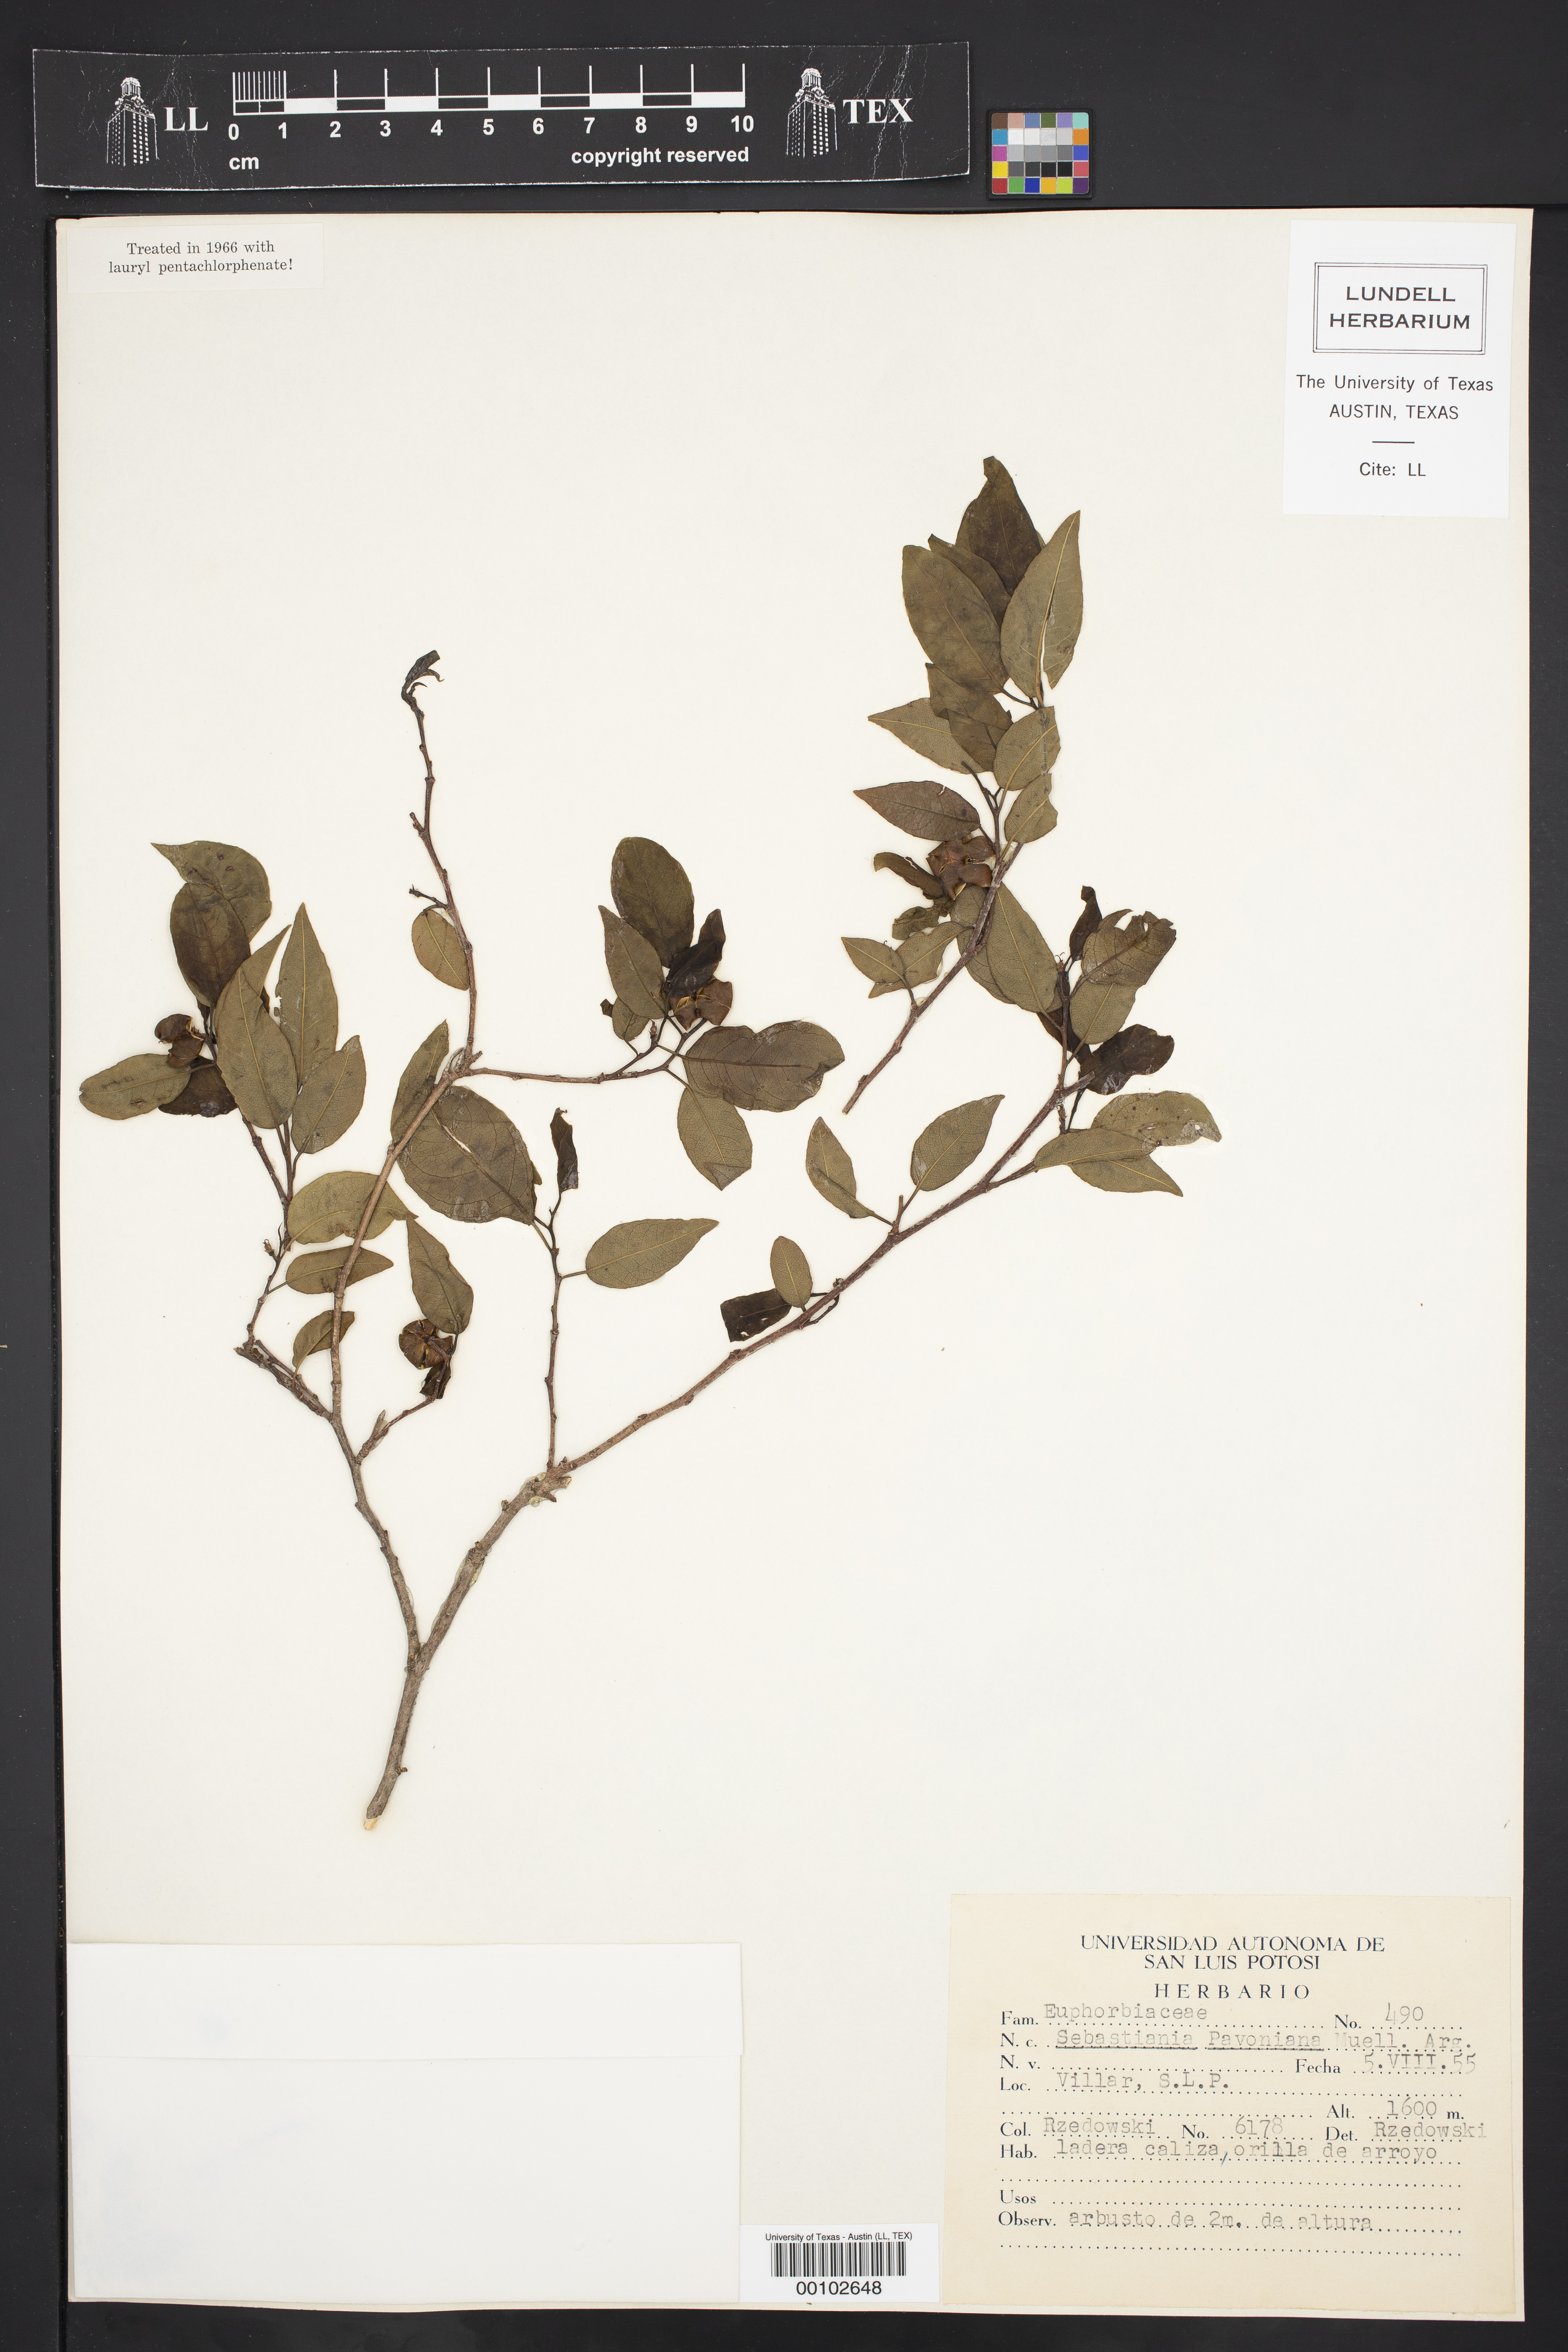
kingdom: Plantae
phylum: Tracheophyta
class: Magnoliopsida
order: Malpighiales
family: Euphorbiaceae
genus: Sebastiania
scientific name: Sebastiania pavoniana
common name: Mexican jumping-beans
